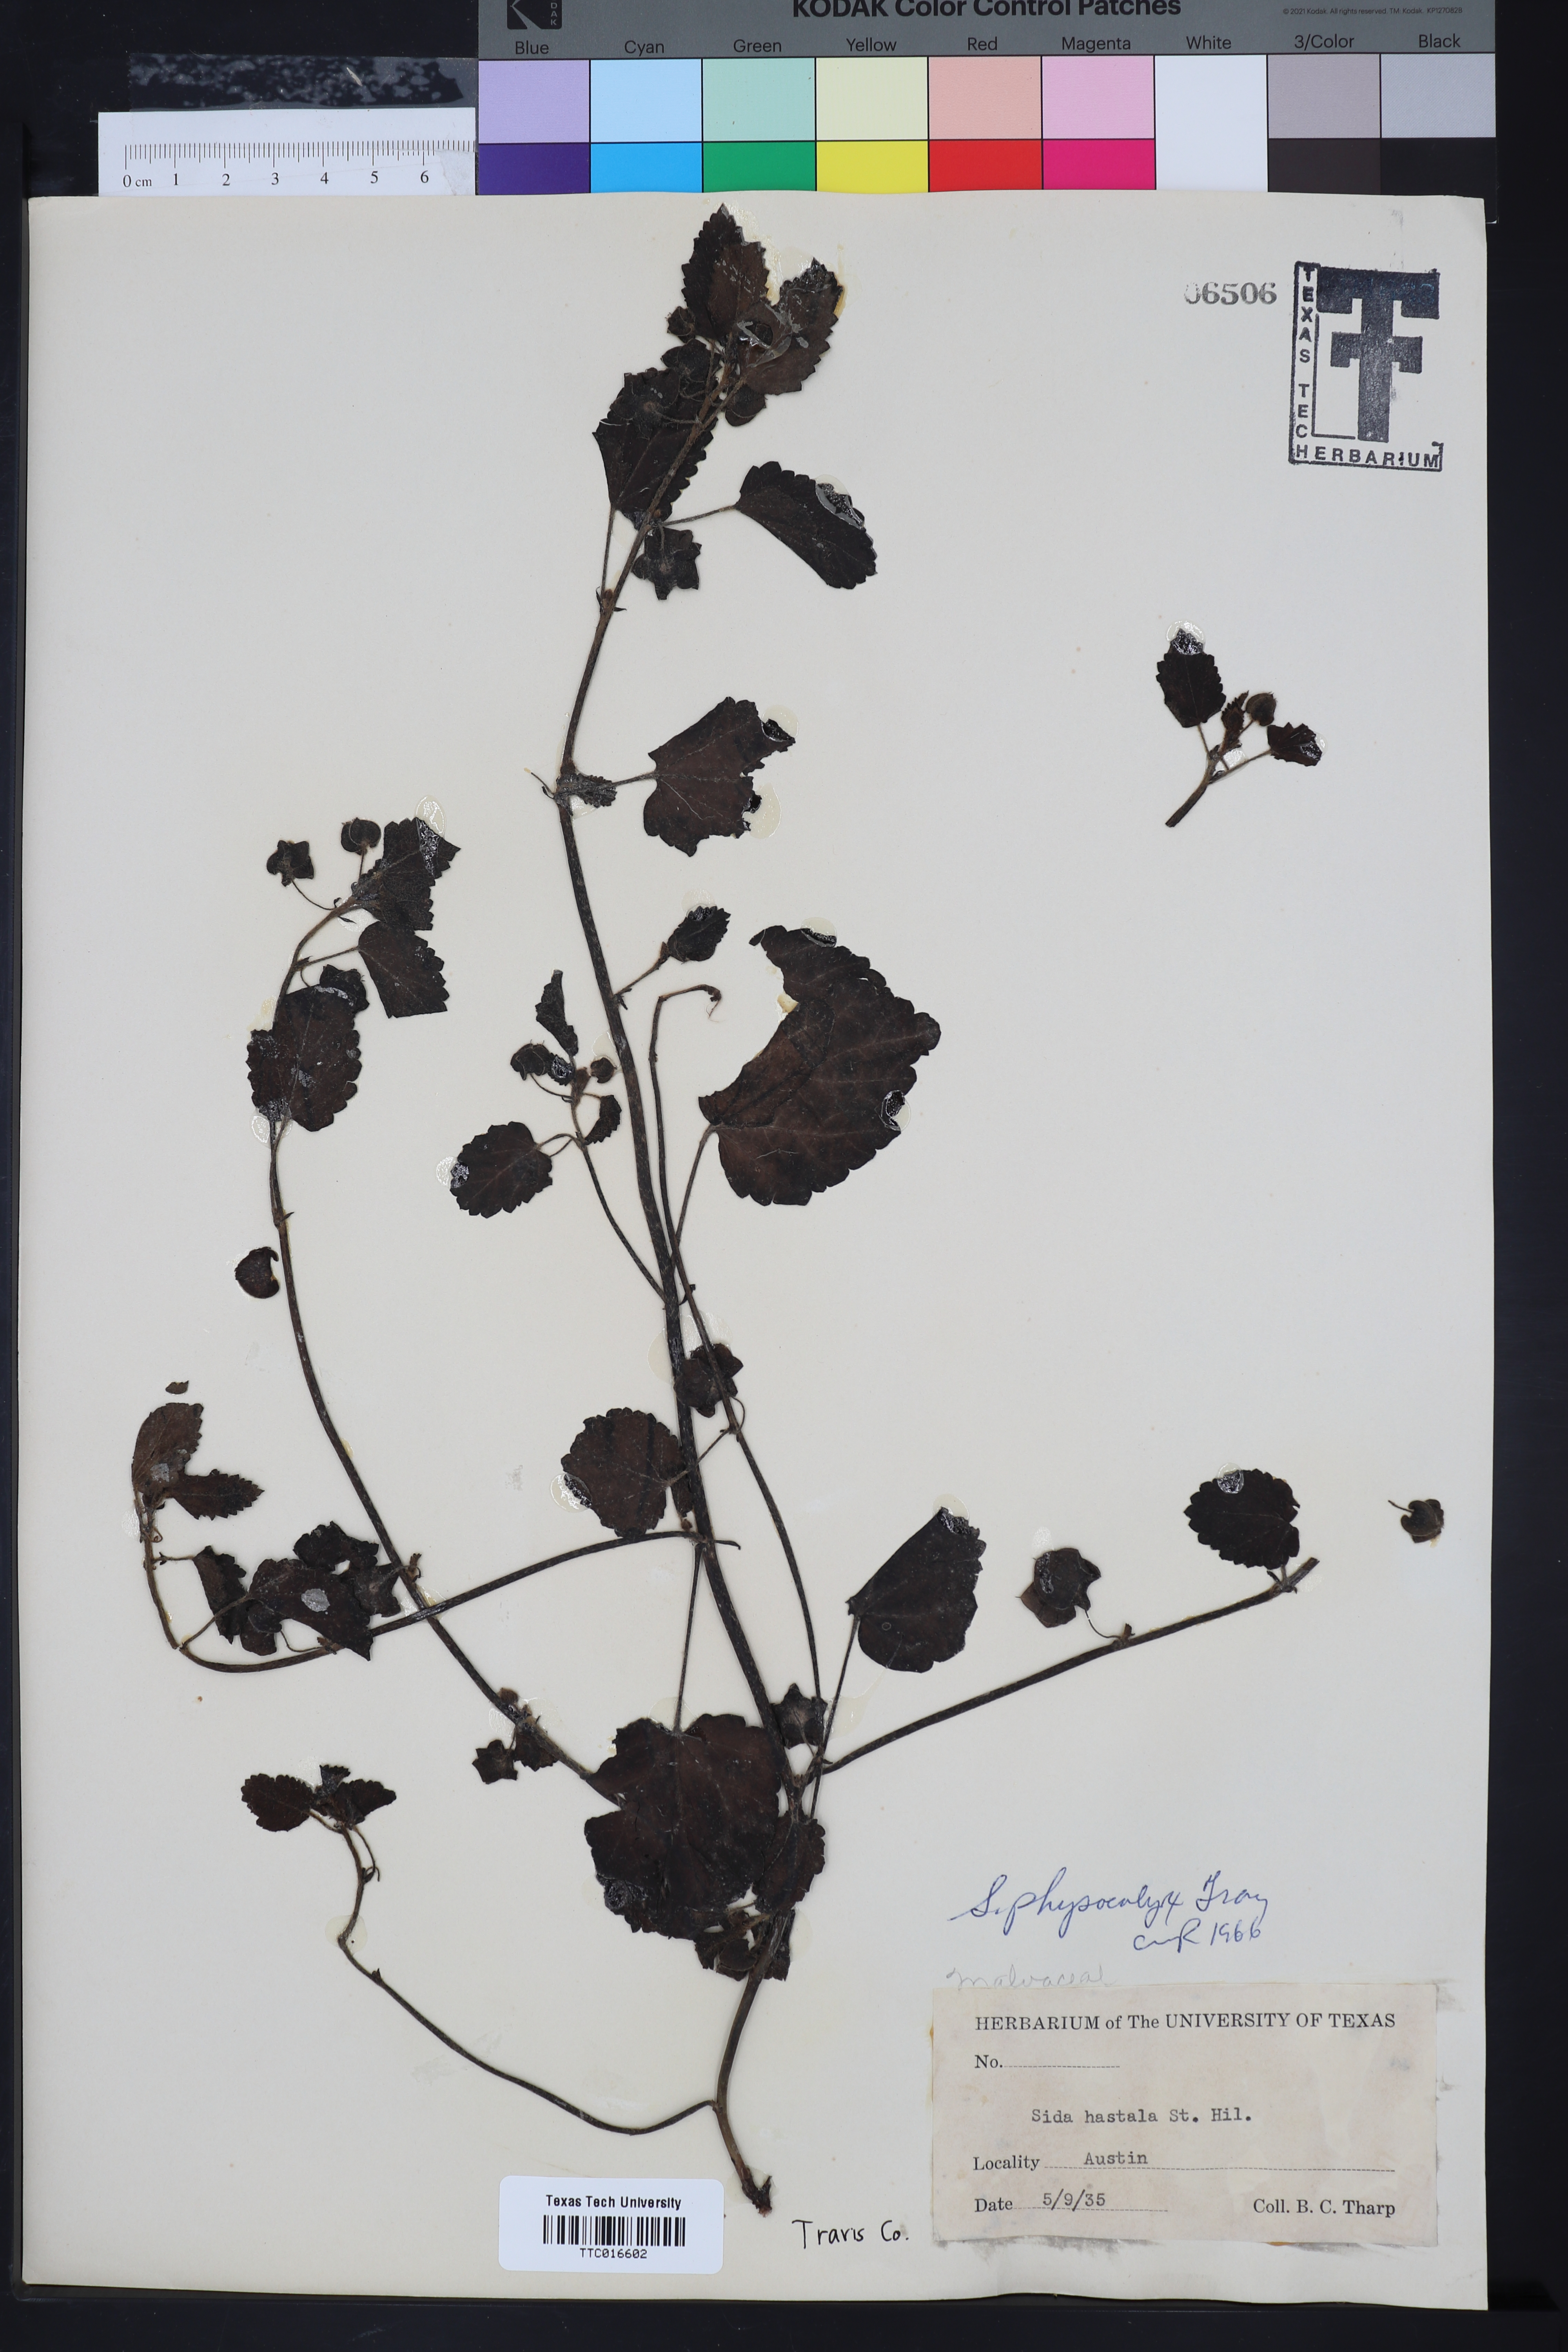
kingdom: Plantae
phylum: Tracheophyta
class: Magnoliopsida
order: Malvales
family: Malvaceae
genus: Rhynchosida
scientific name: Rhynchosida physocalyx
